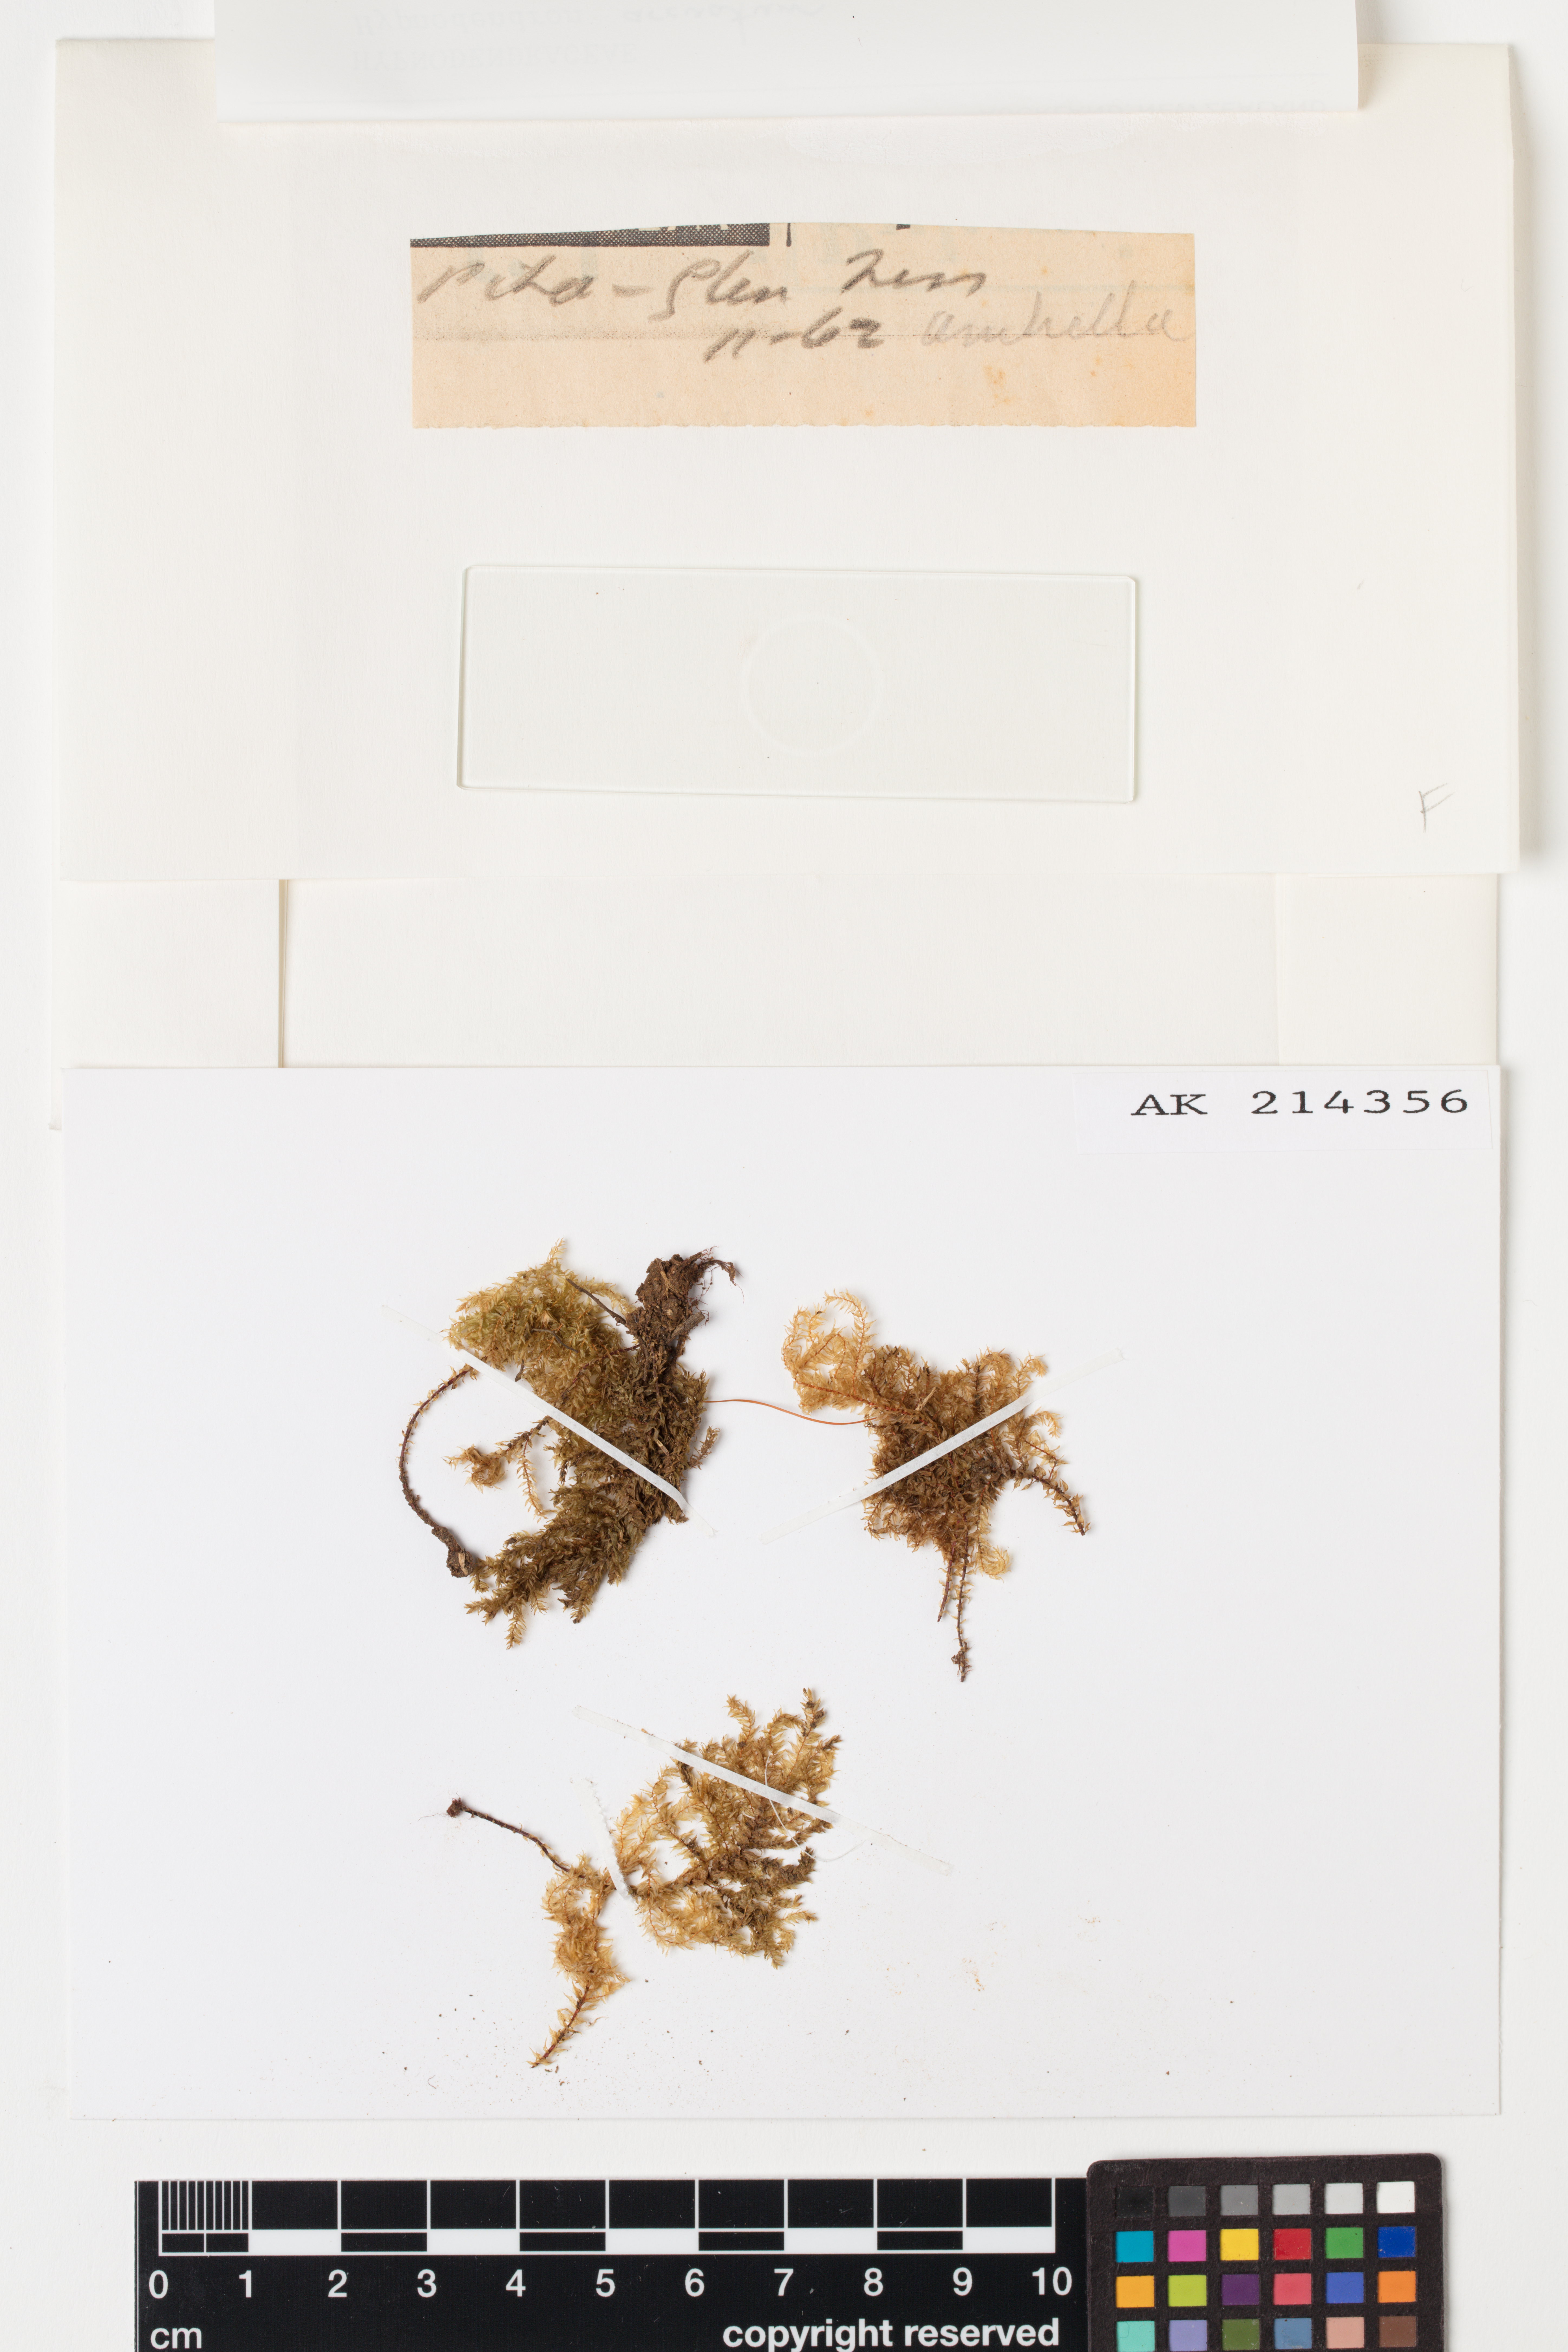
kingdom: Plantae
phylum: Bryophyta
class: Bryopsida
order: Hypnodendrales
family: Spiridentaceae
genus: Hypnodendron
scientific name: Hypnodendron arcuatum
